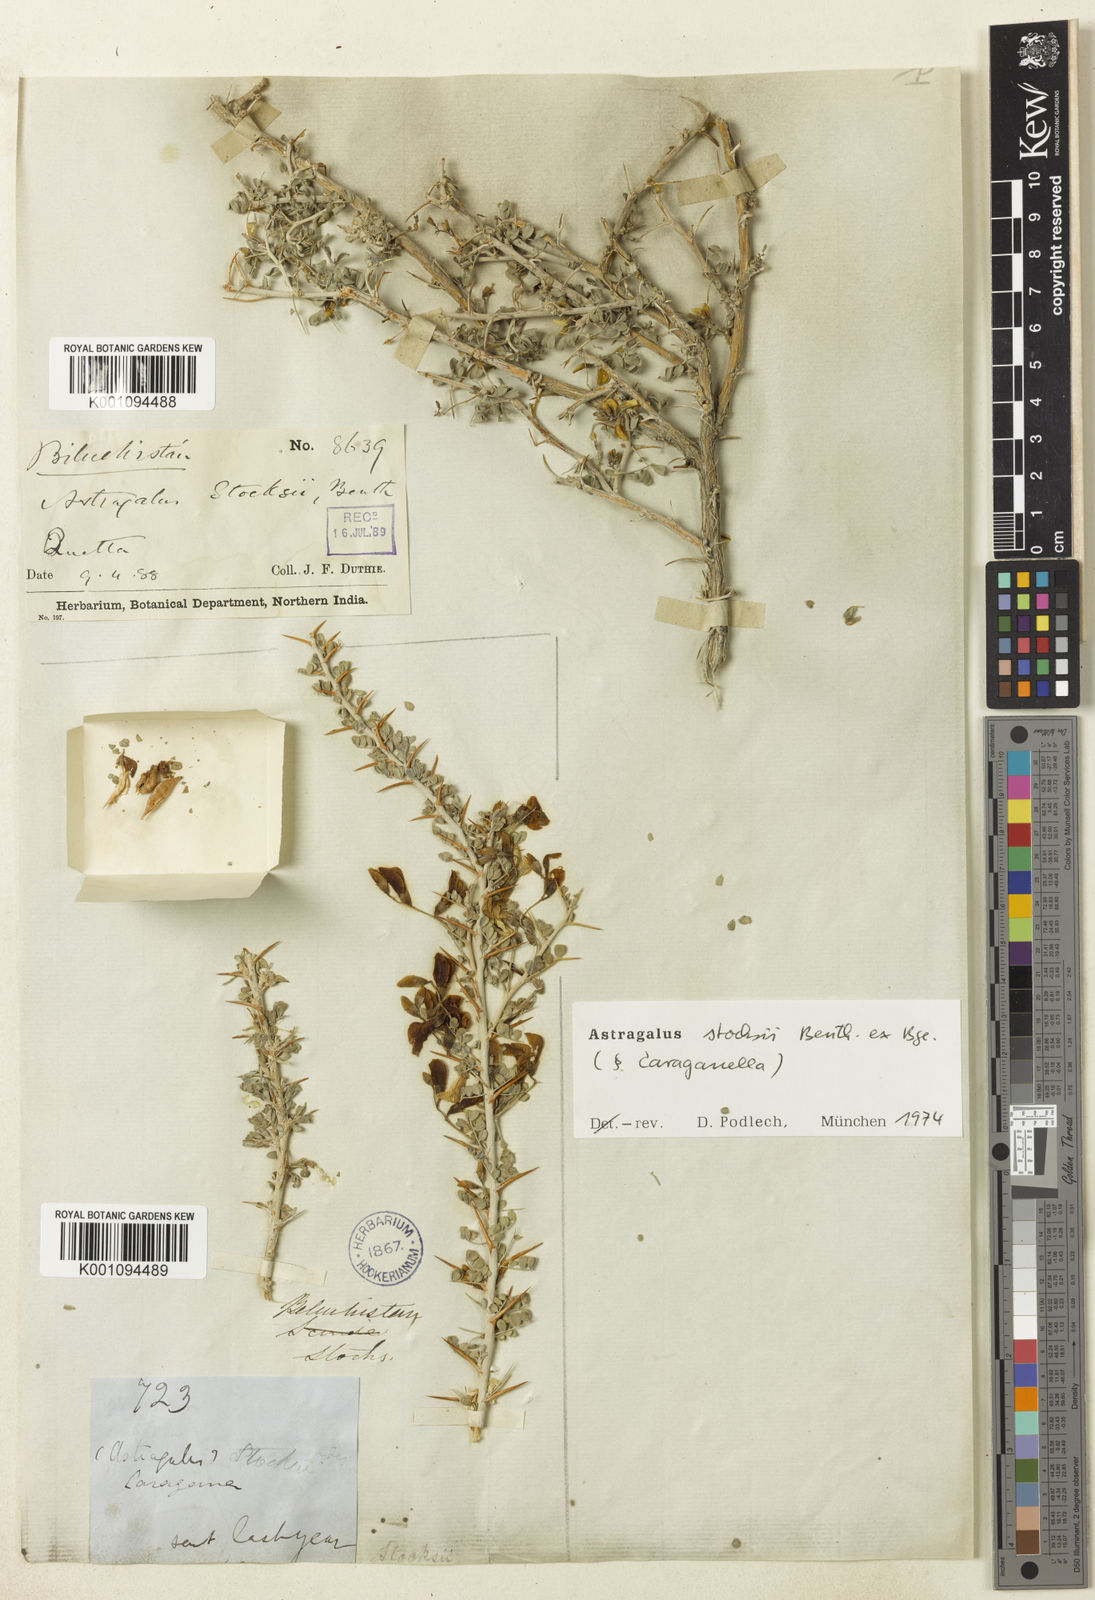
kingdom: Plantae
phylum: Tracheophyta
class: Magnoliopsida
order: Fabales
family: Fabaceae
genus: Astragalus
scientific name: Astragalus
